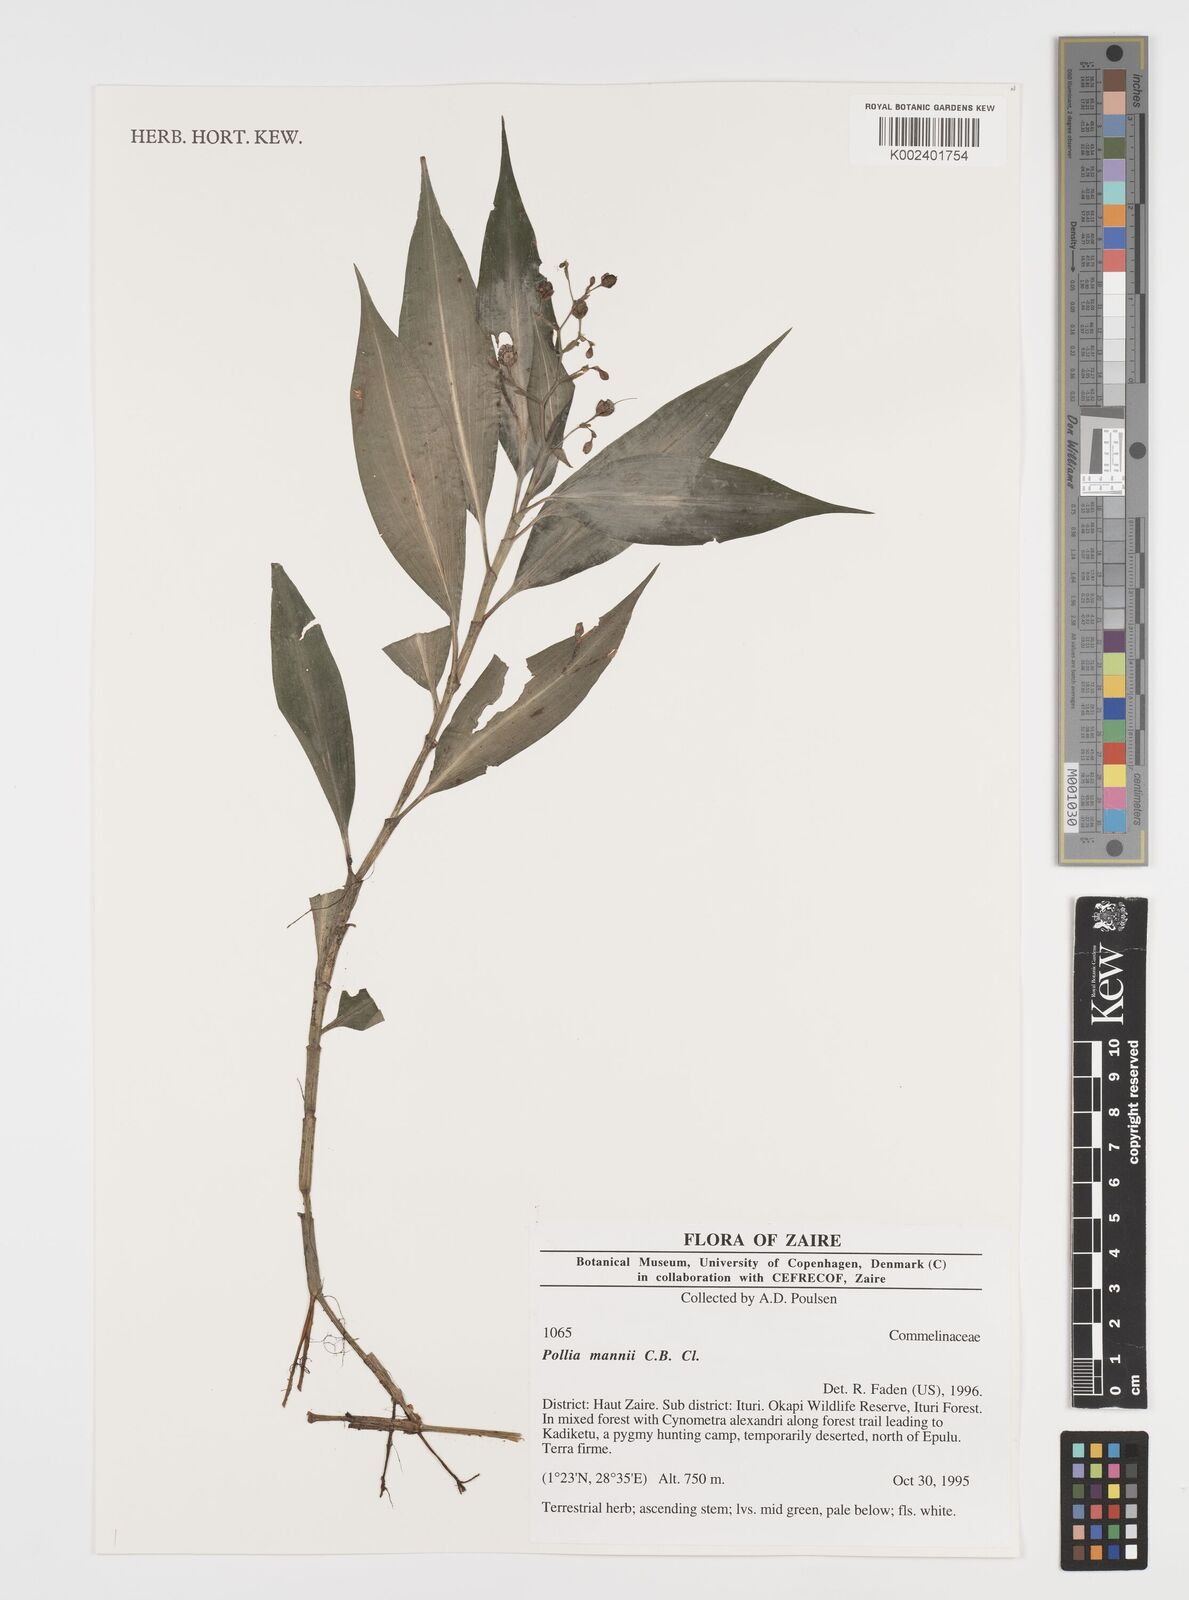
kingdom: Plantae
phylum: Tracheophyta
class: Liliopsida
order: Commelinales
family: Commelinaceae
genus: Pollia
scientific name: Pollia mannii
